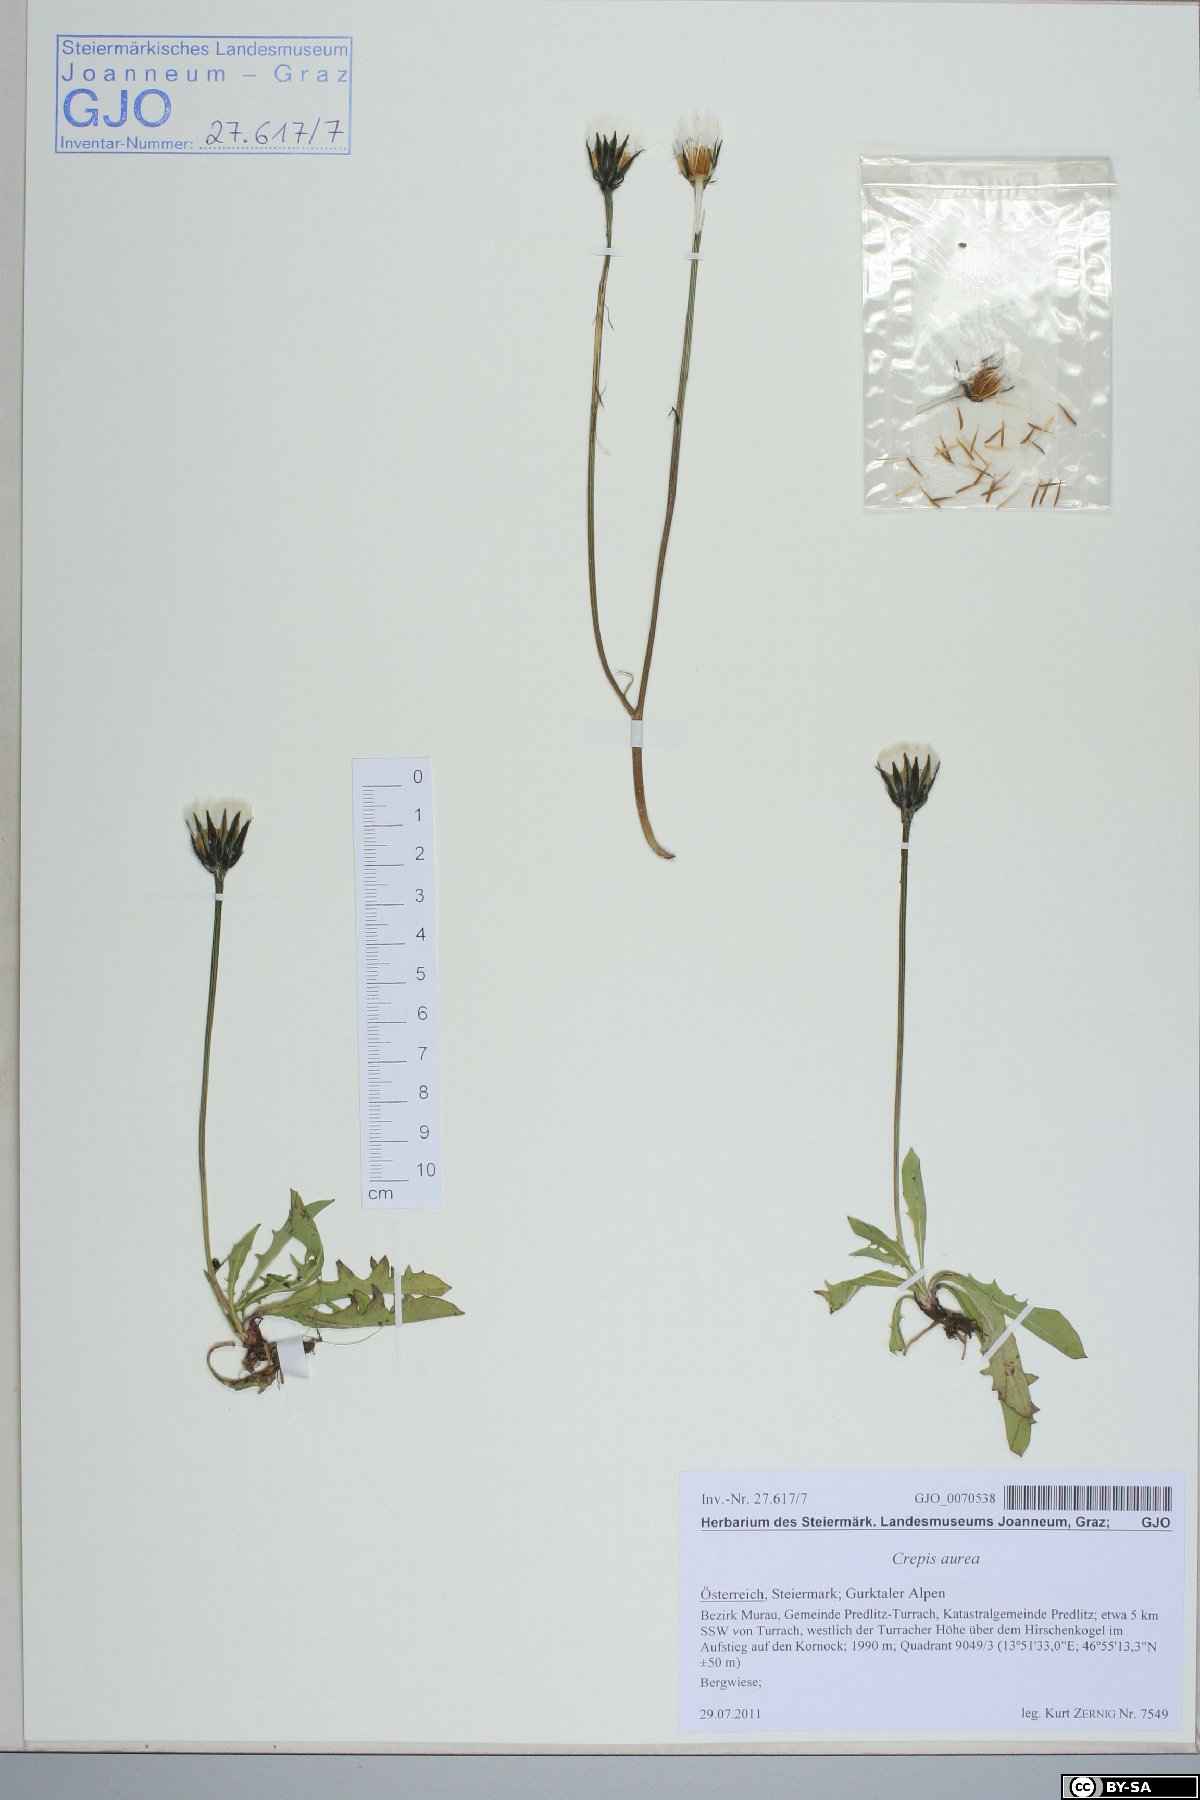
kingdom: Plantae
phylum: Tracheophyta
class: Magnoliopsida
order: Asterales
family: Asteraceae
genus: Crepis
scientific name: Crepis aurea
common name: Golden hawk's-beard
